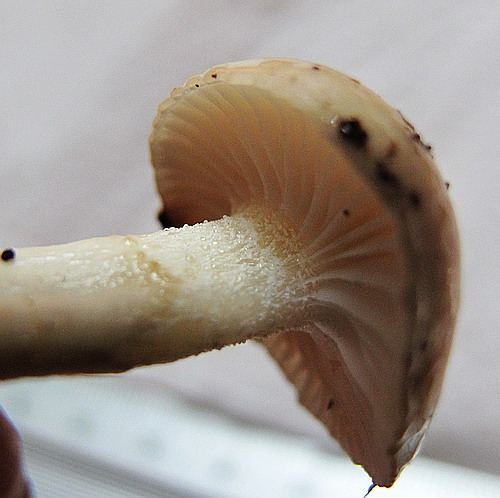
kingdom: Fungi
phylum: Basidiomycota
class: Agaricomycetes
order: Agaricales
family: Hygrophoraceae
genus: Hygrophorus
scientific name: Hygrophorus mesotephrus
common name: askegrå sneglehat
